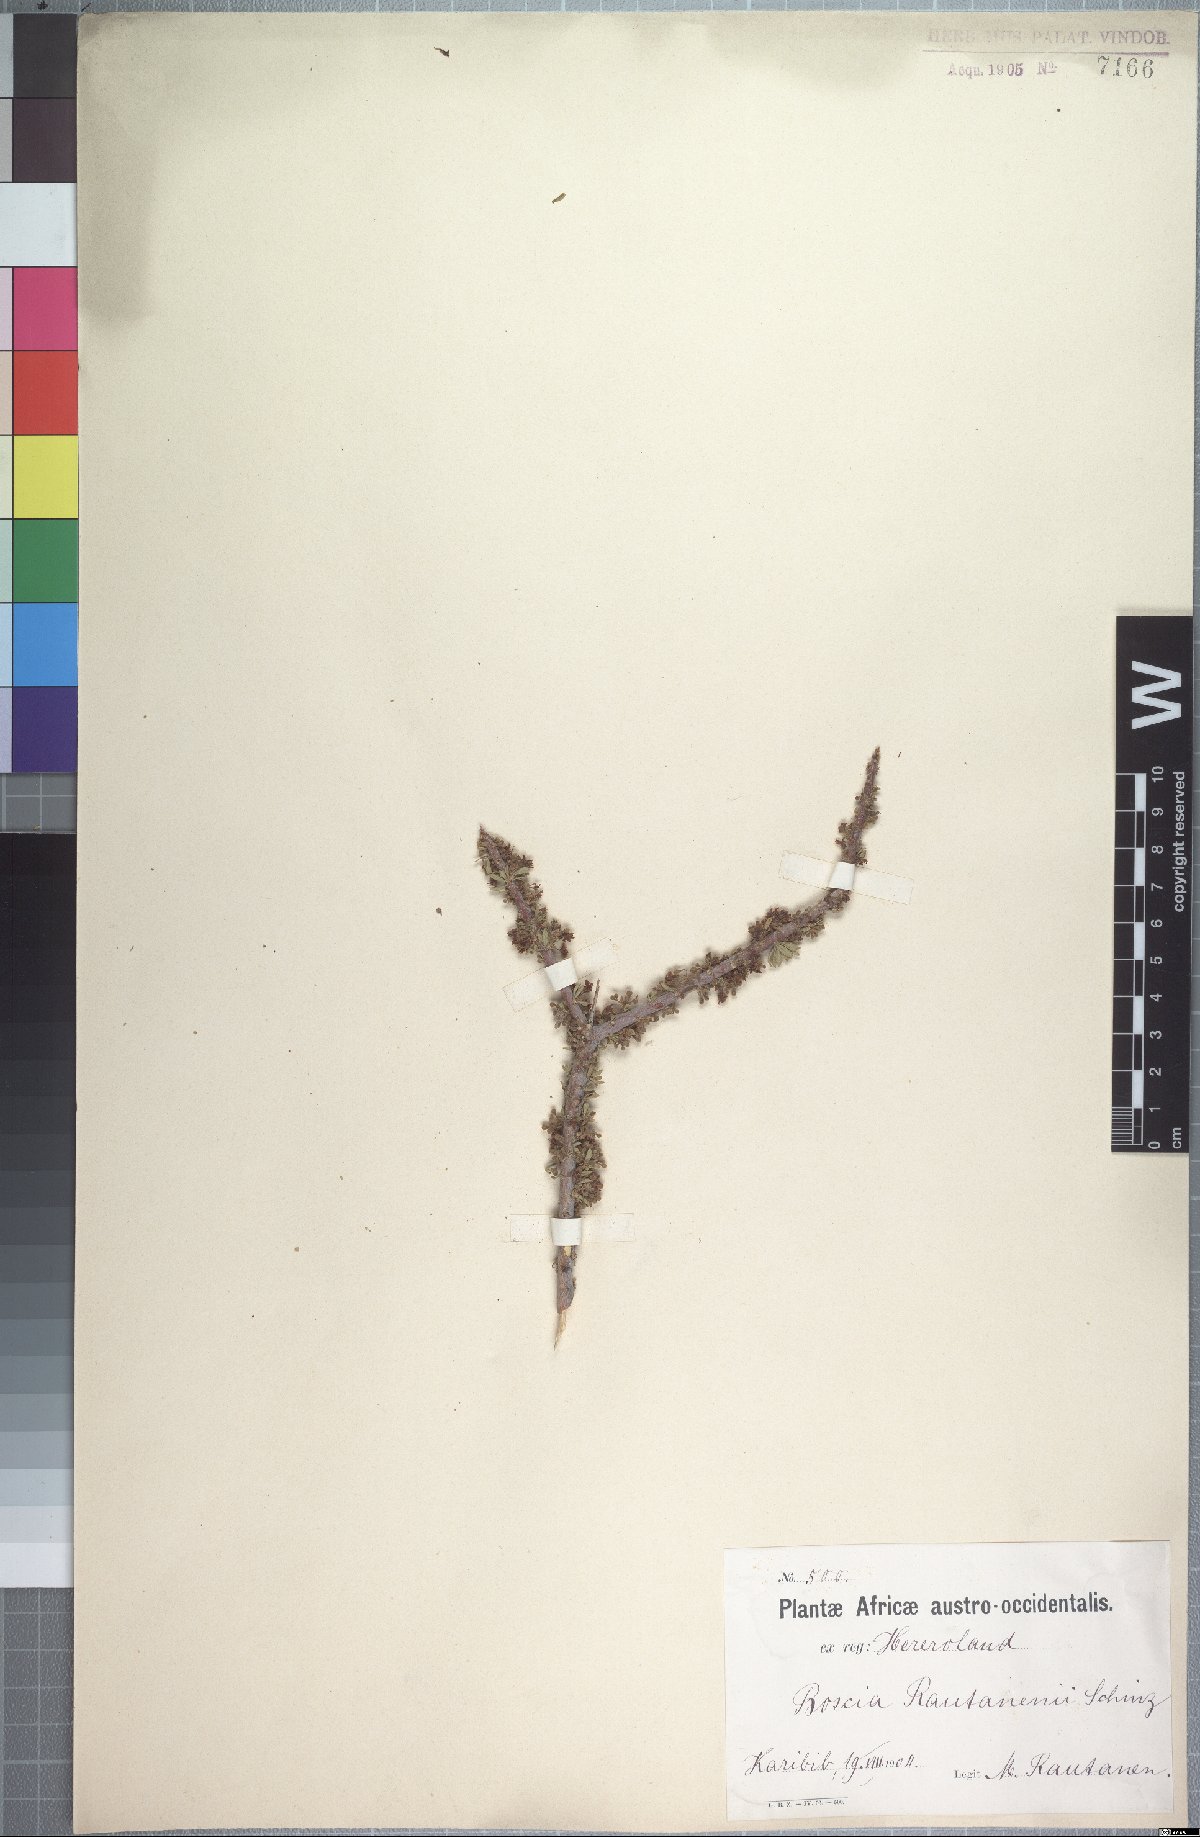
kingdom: Plantae
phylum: Tracheophyta
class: Magnoliopsida
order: Brassicales
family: Capparaceae
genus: Boscia
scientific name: Boscia foetida
